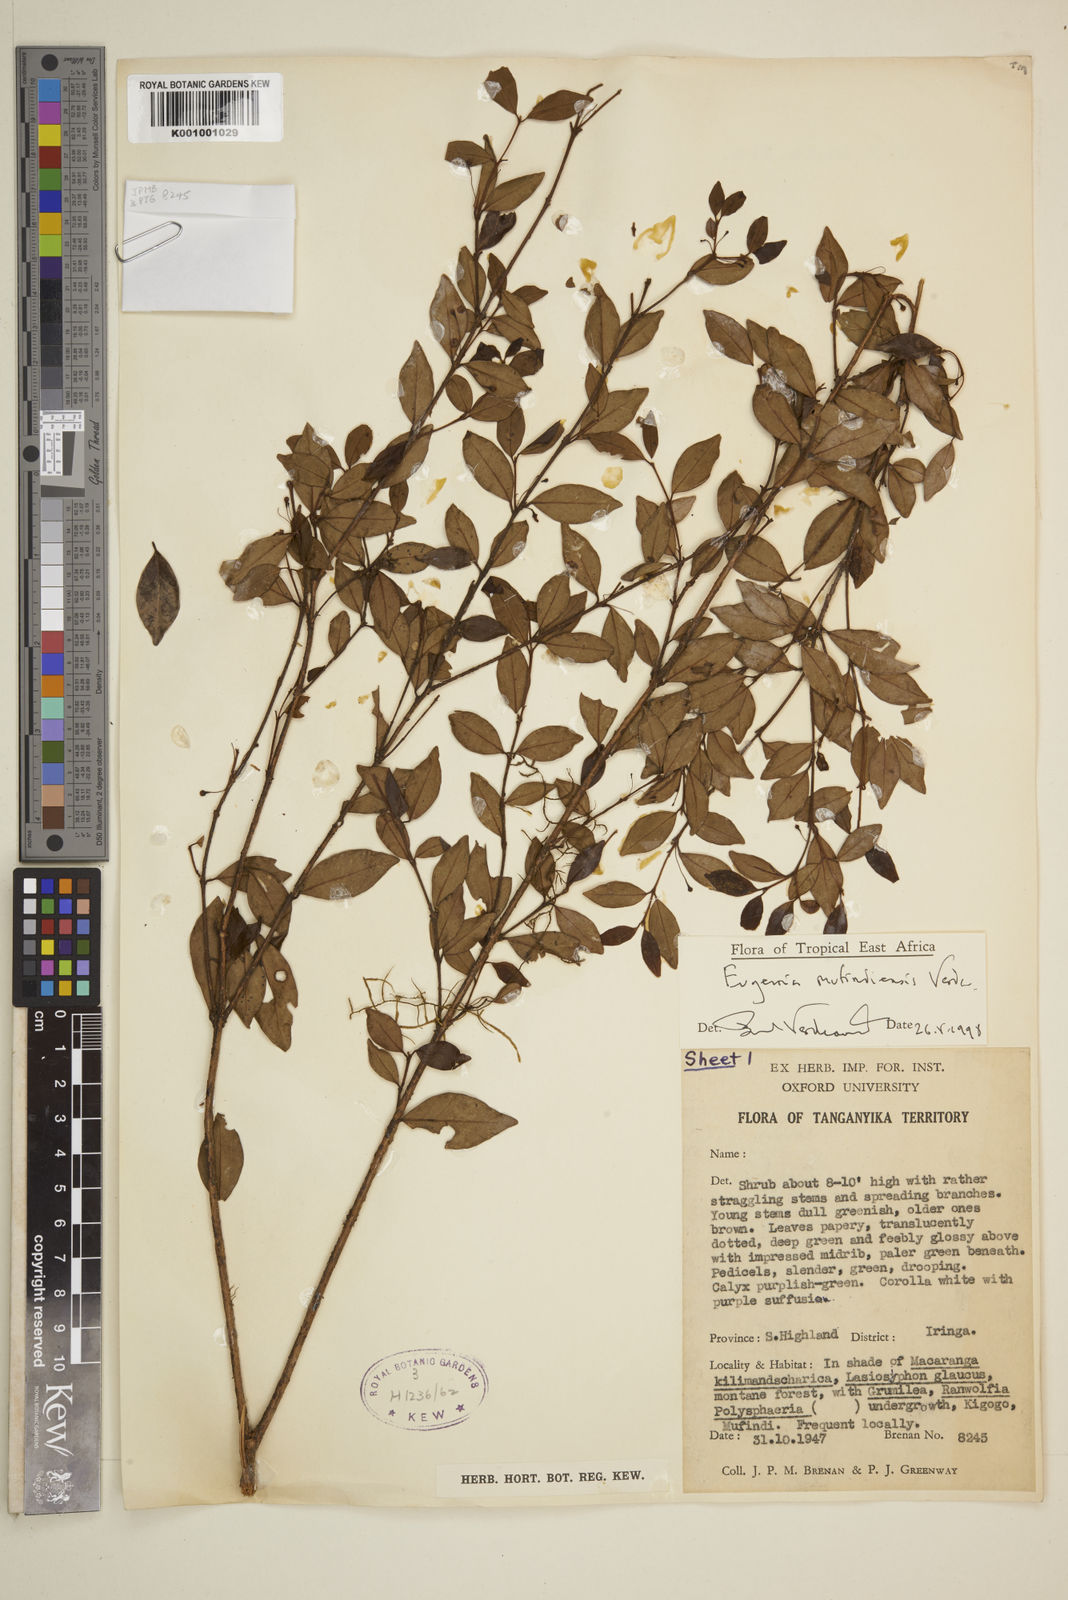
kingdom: Plantae
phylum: Tracheophyta
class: Magnoliopsida
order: Myrtales
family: Myrtaceae
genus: Eugenia
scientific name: Eugenia mufindiensis
